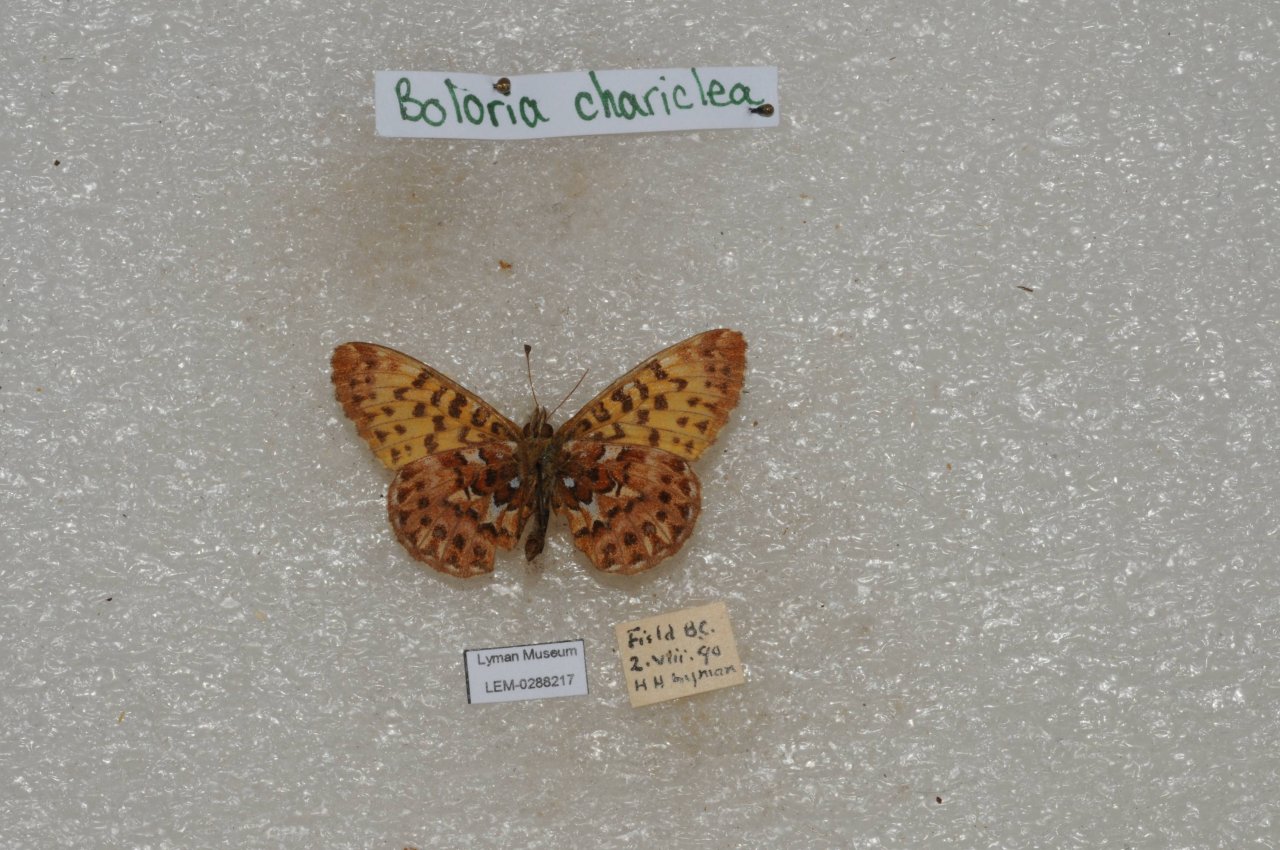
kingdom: Animalia
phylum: Arthropoda
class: Insecta
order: Lepidoptera
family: Nymphalidae
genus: Boloria
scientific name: Boloria chariclea
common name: Arctic Fritillary
